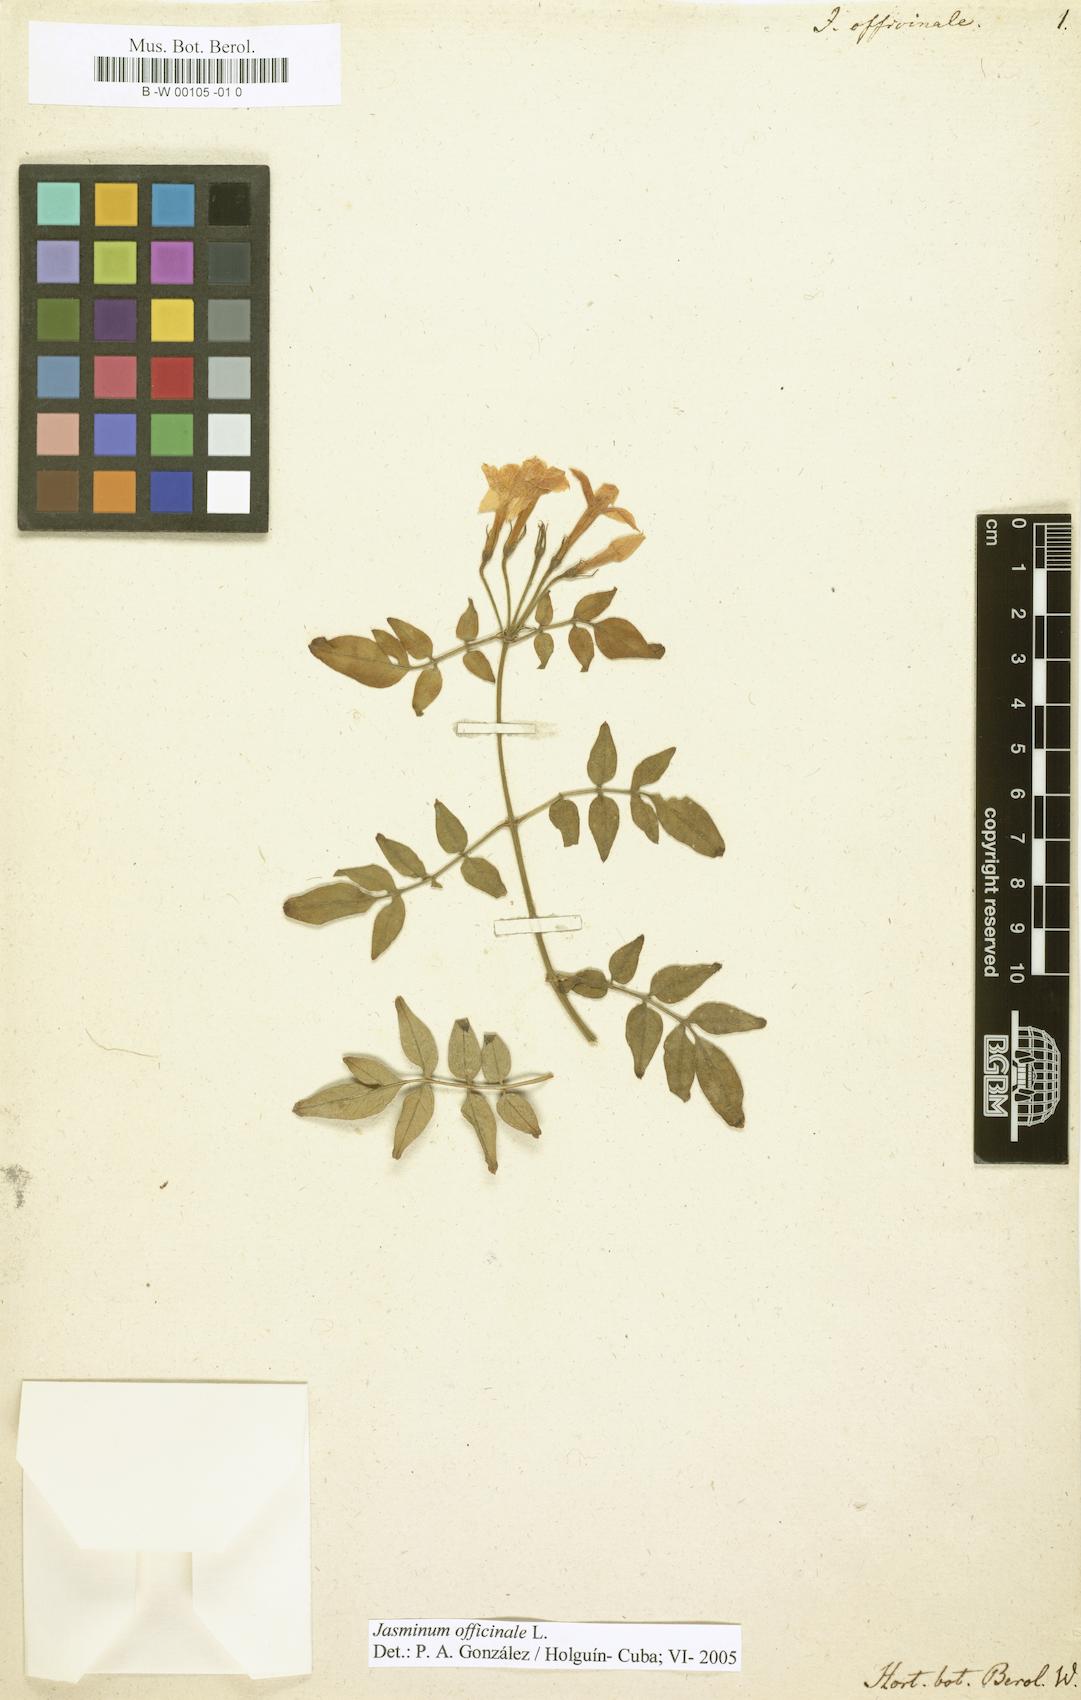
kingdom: Plantae
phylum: Tracheophyta
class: Magnoliopsida
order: Lamiales
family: Oleaceae
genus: Jasminum
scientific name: Jasminum officinale
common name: Summer jasmine
